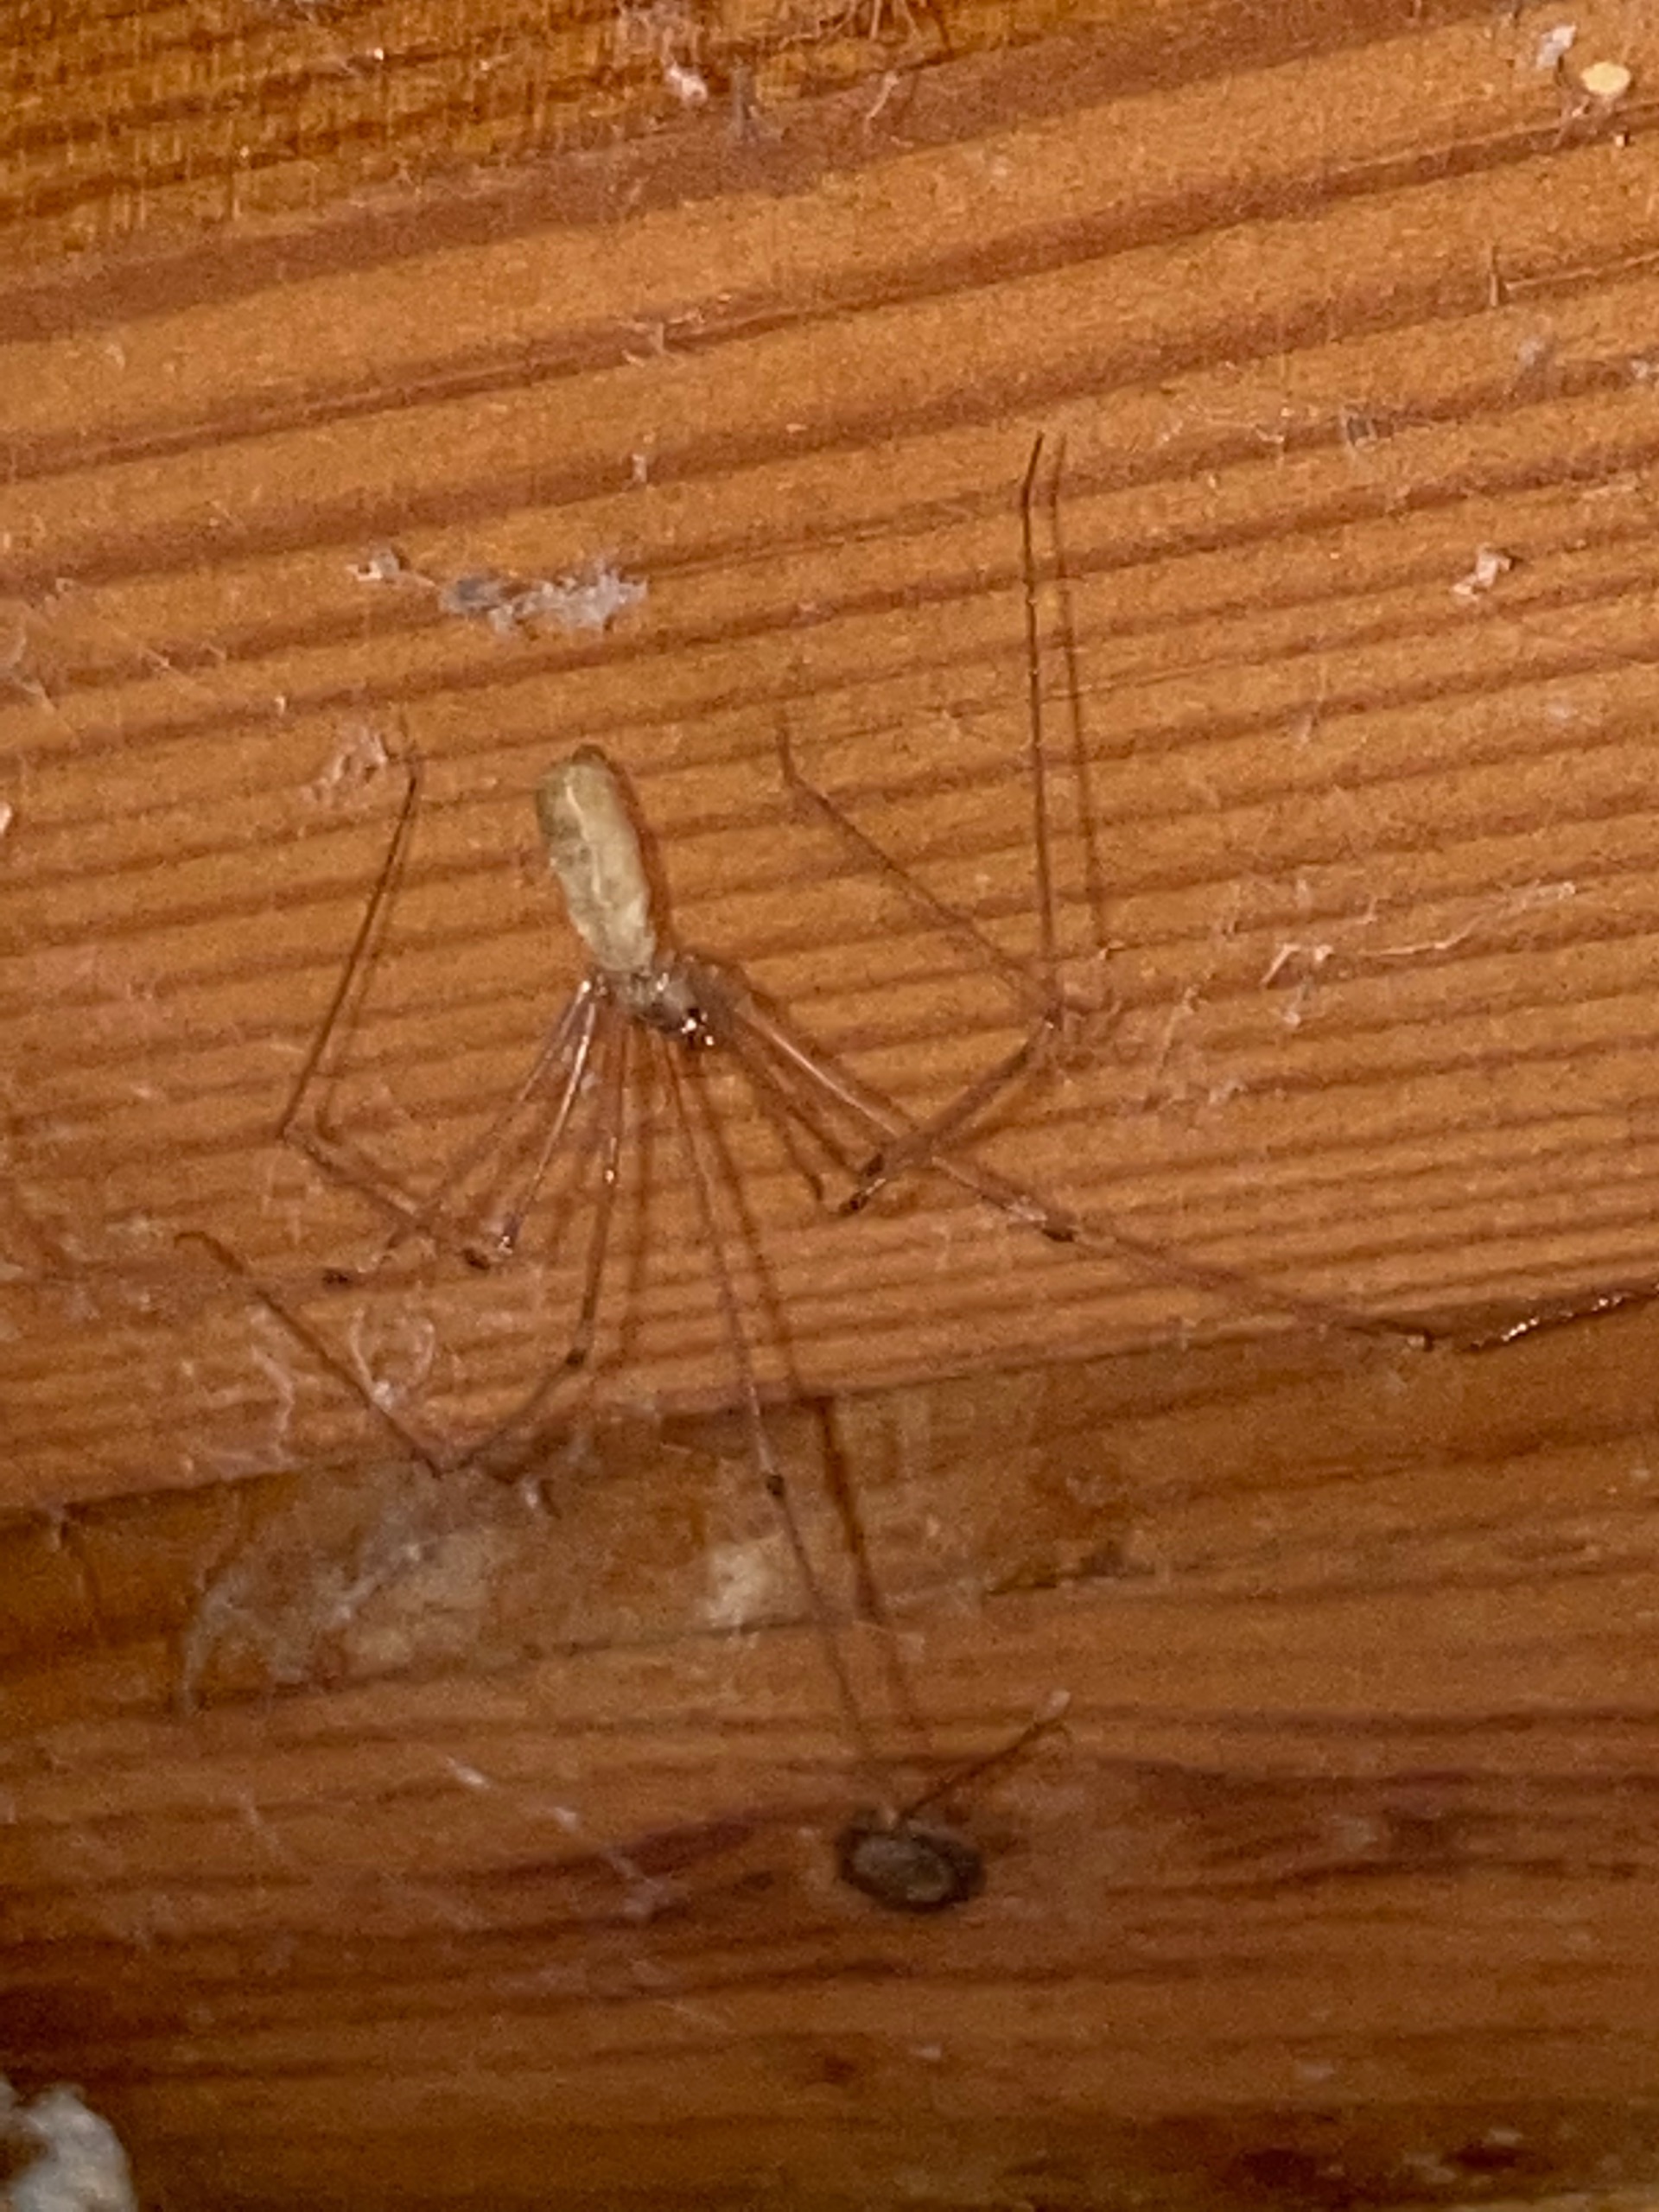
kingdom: Animalia
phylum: Arthropoda
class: Arachnida
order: Araneae
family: Pholcidae
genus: Pholcus
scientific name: Pholcus phalangioides
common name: Mejeredderkop
